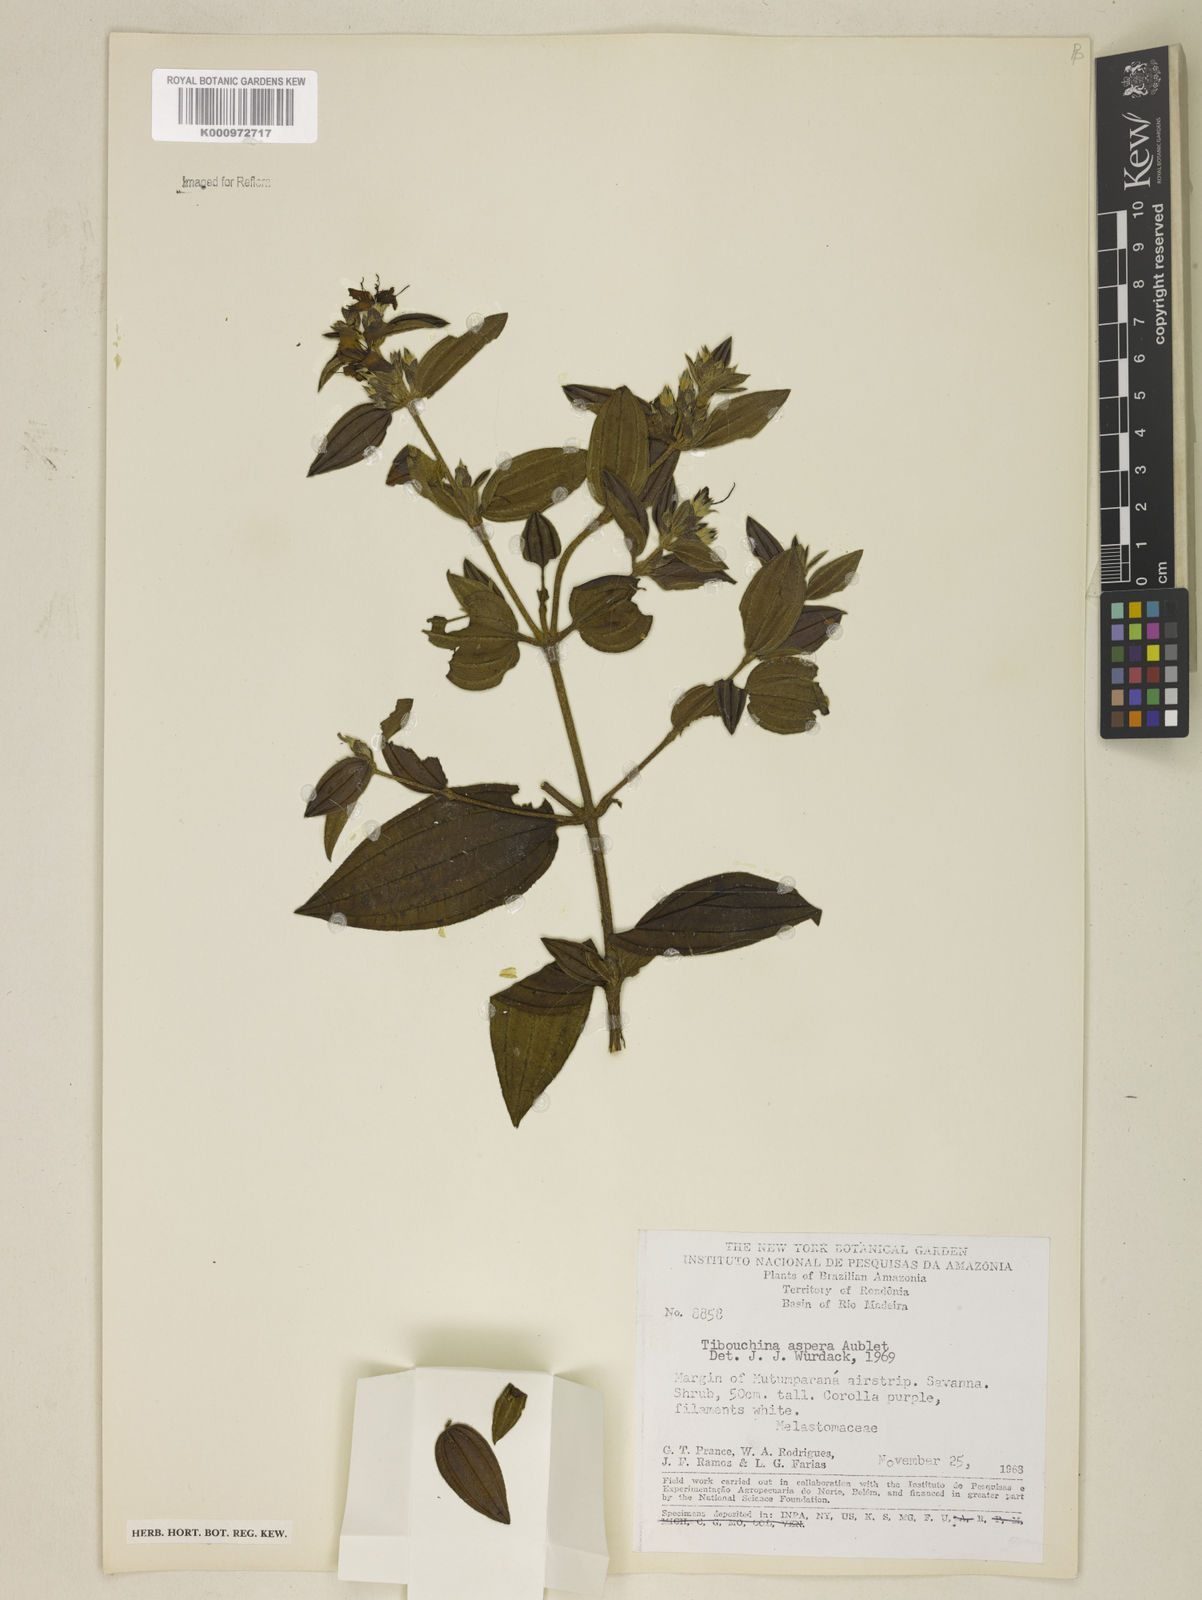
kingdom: Plantae
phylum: Tracheophyta
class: Magnoliopsida
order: Myrtales
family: Melastomataceae
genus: Tibouchina
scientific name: Tibouchina aspera
